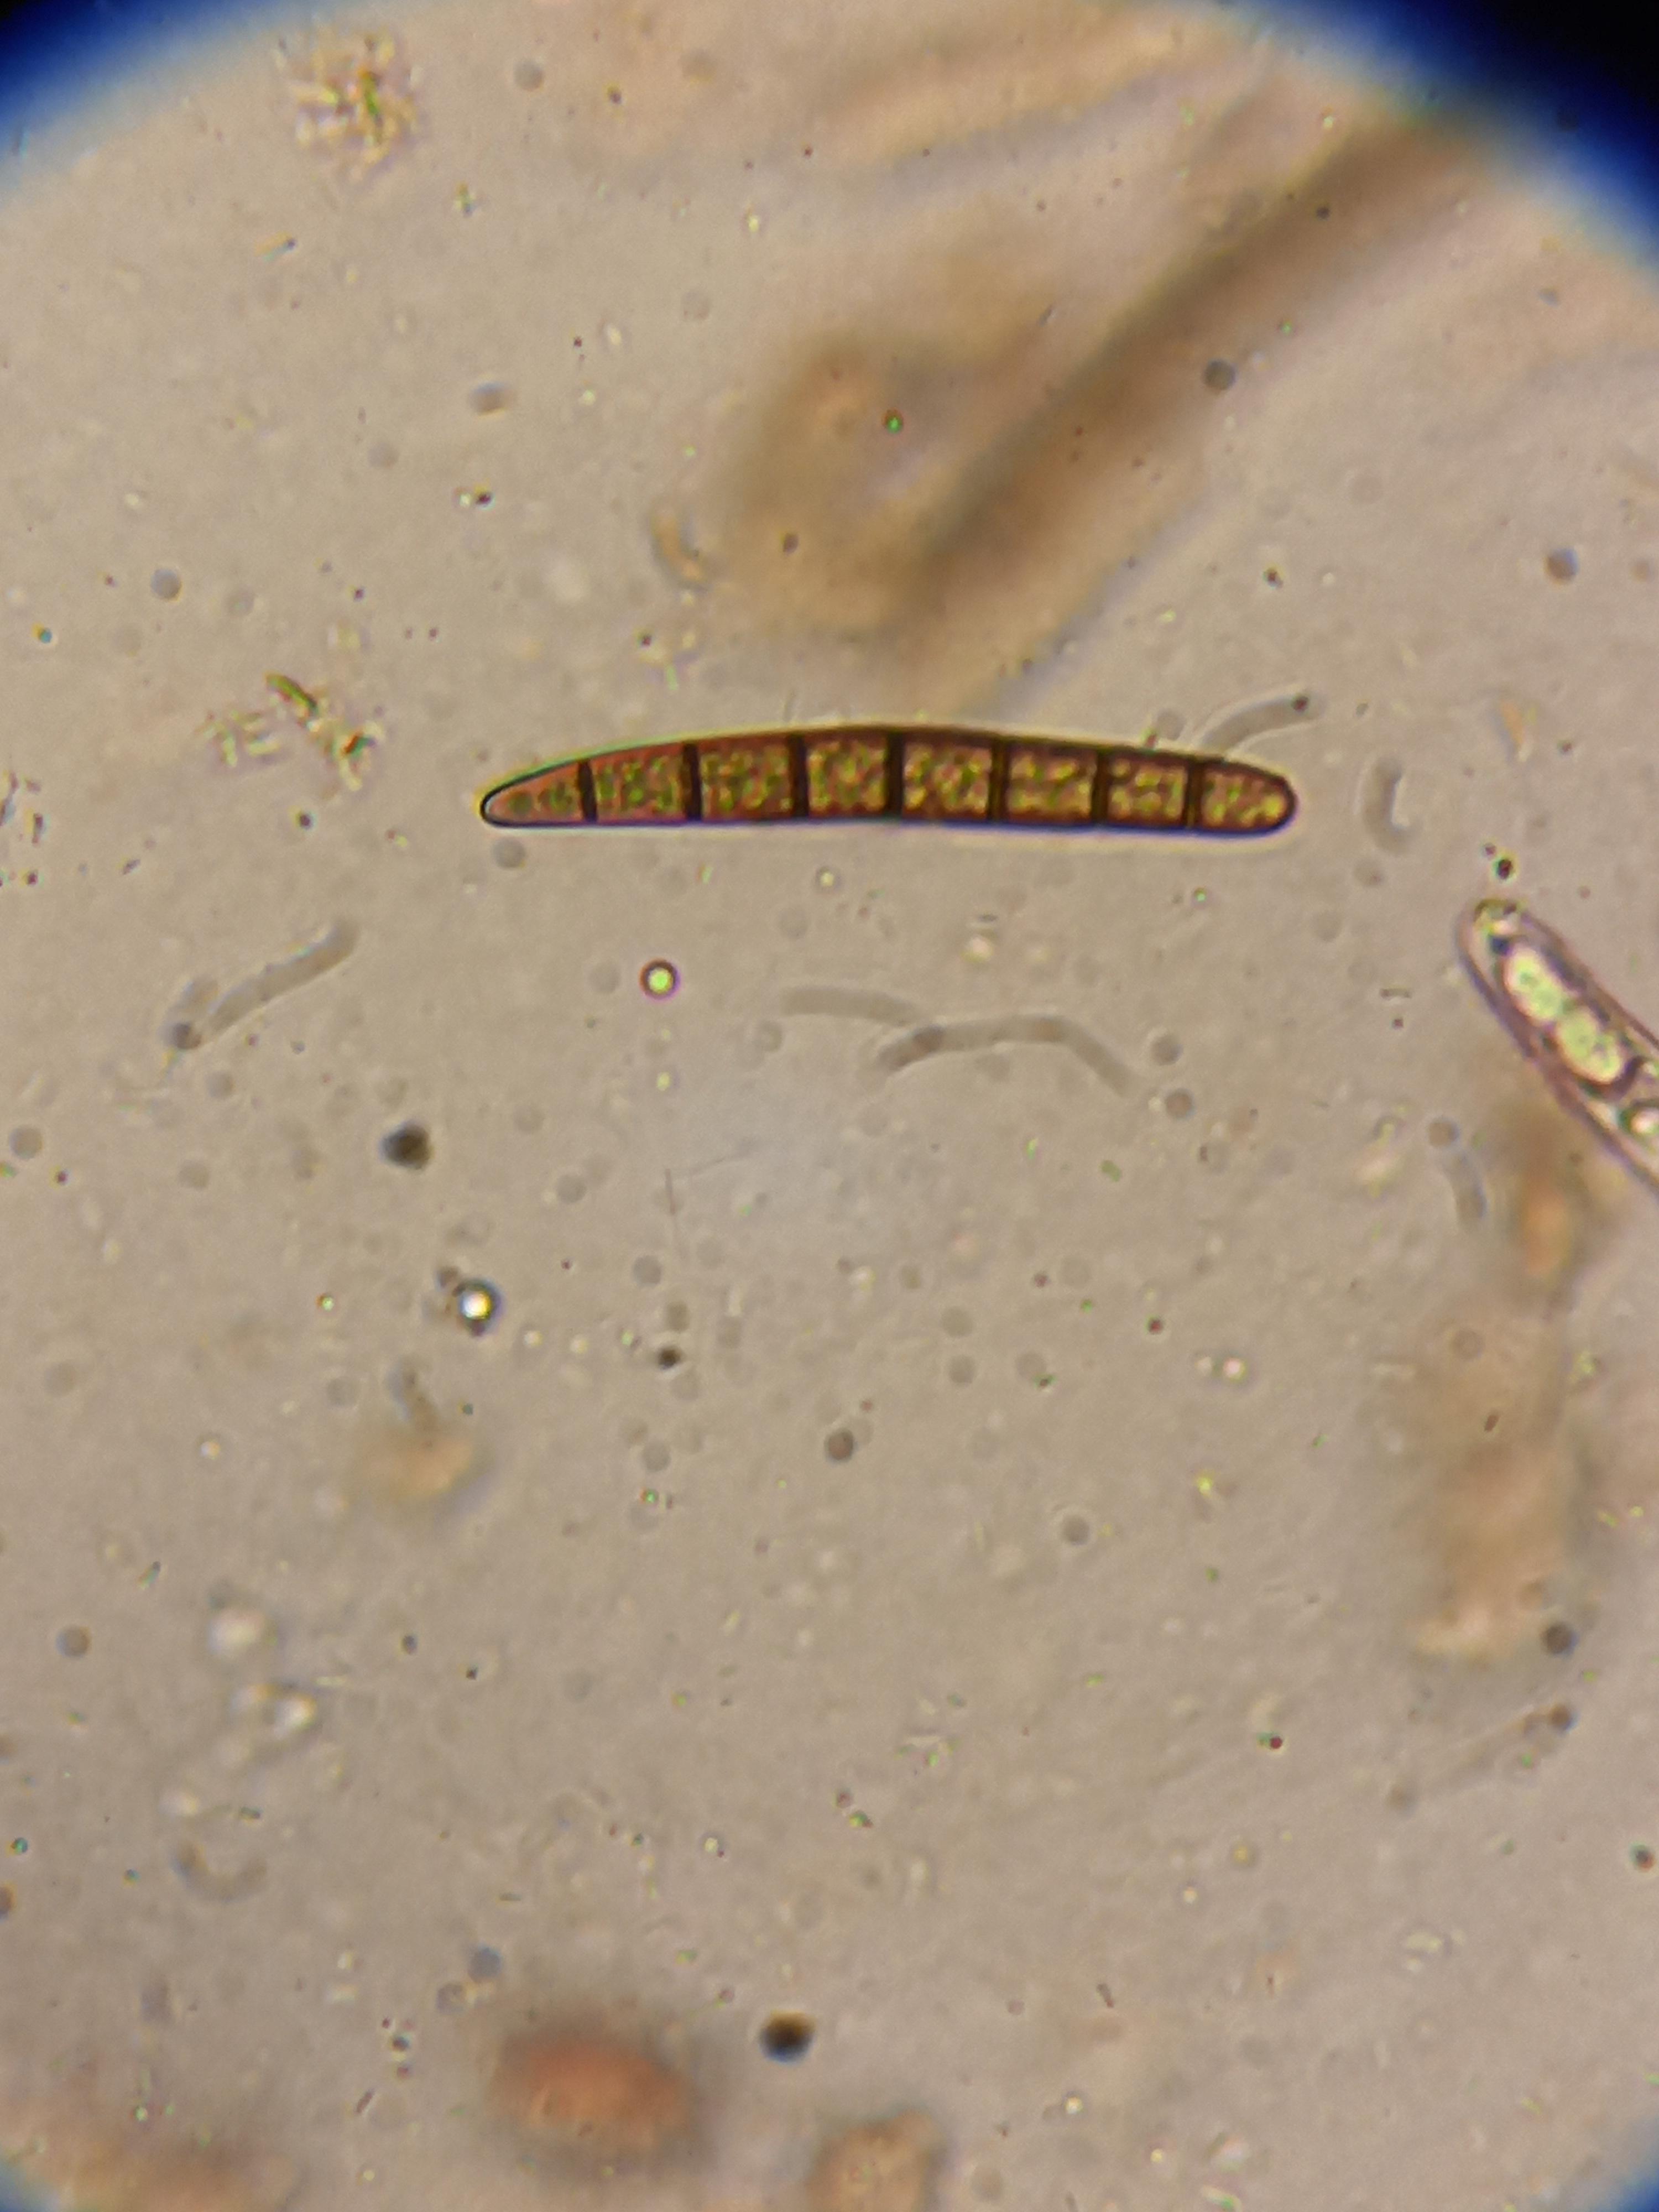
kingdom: Fungi
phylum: Ascomycota
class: Geoglossomycetes
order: Geoglossales
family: Geoglossaceae
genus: Geoglossum
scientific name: Geoglossum cookeianum
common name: bred jordtunge
